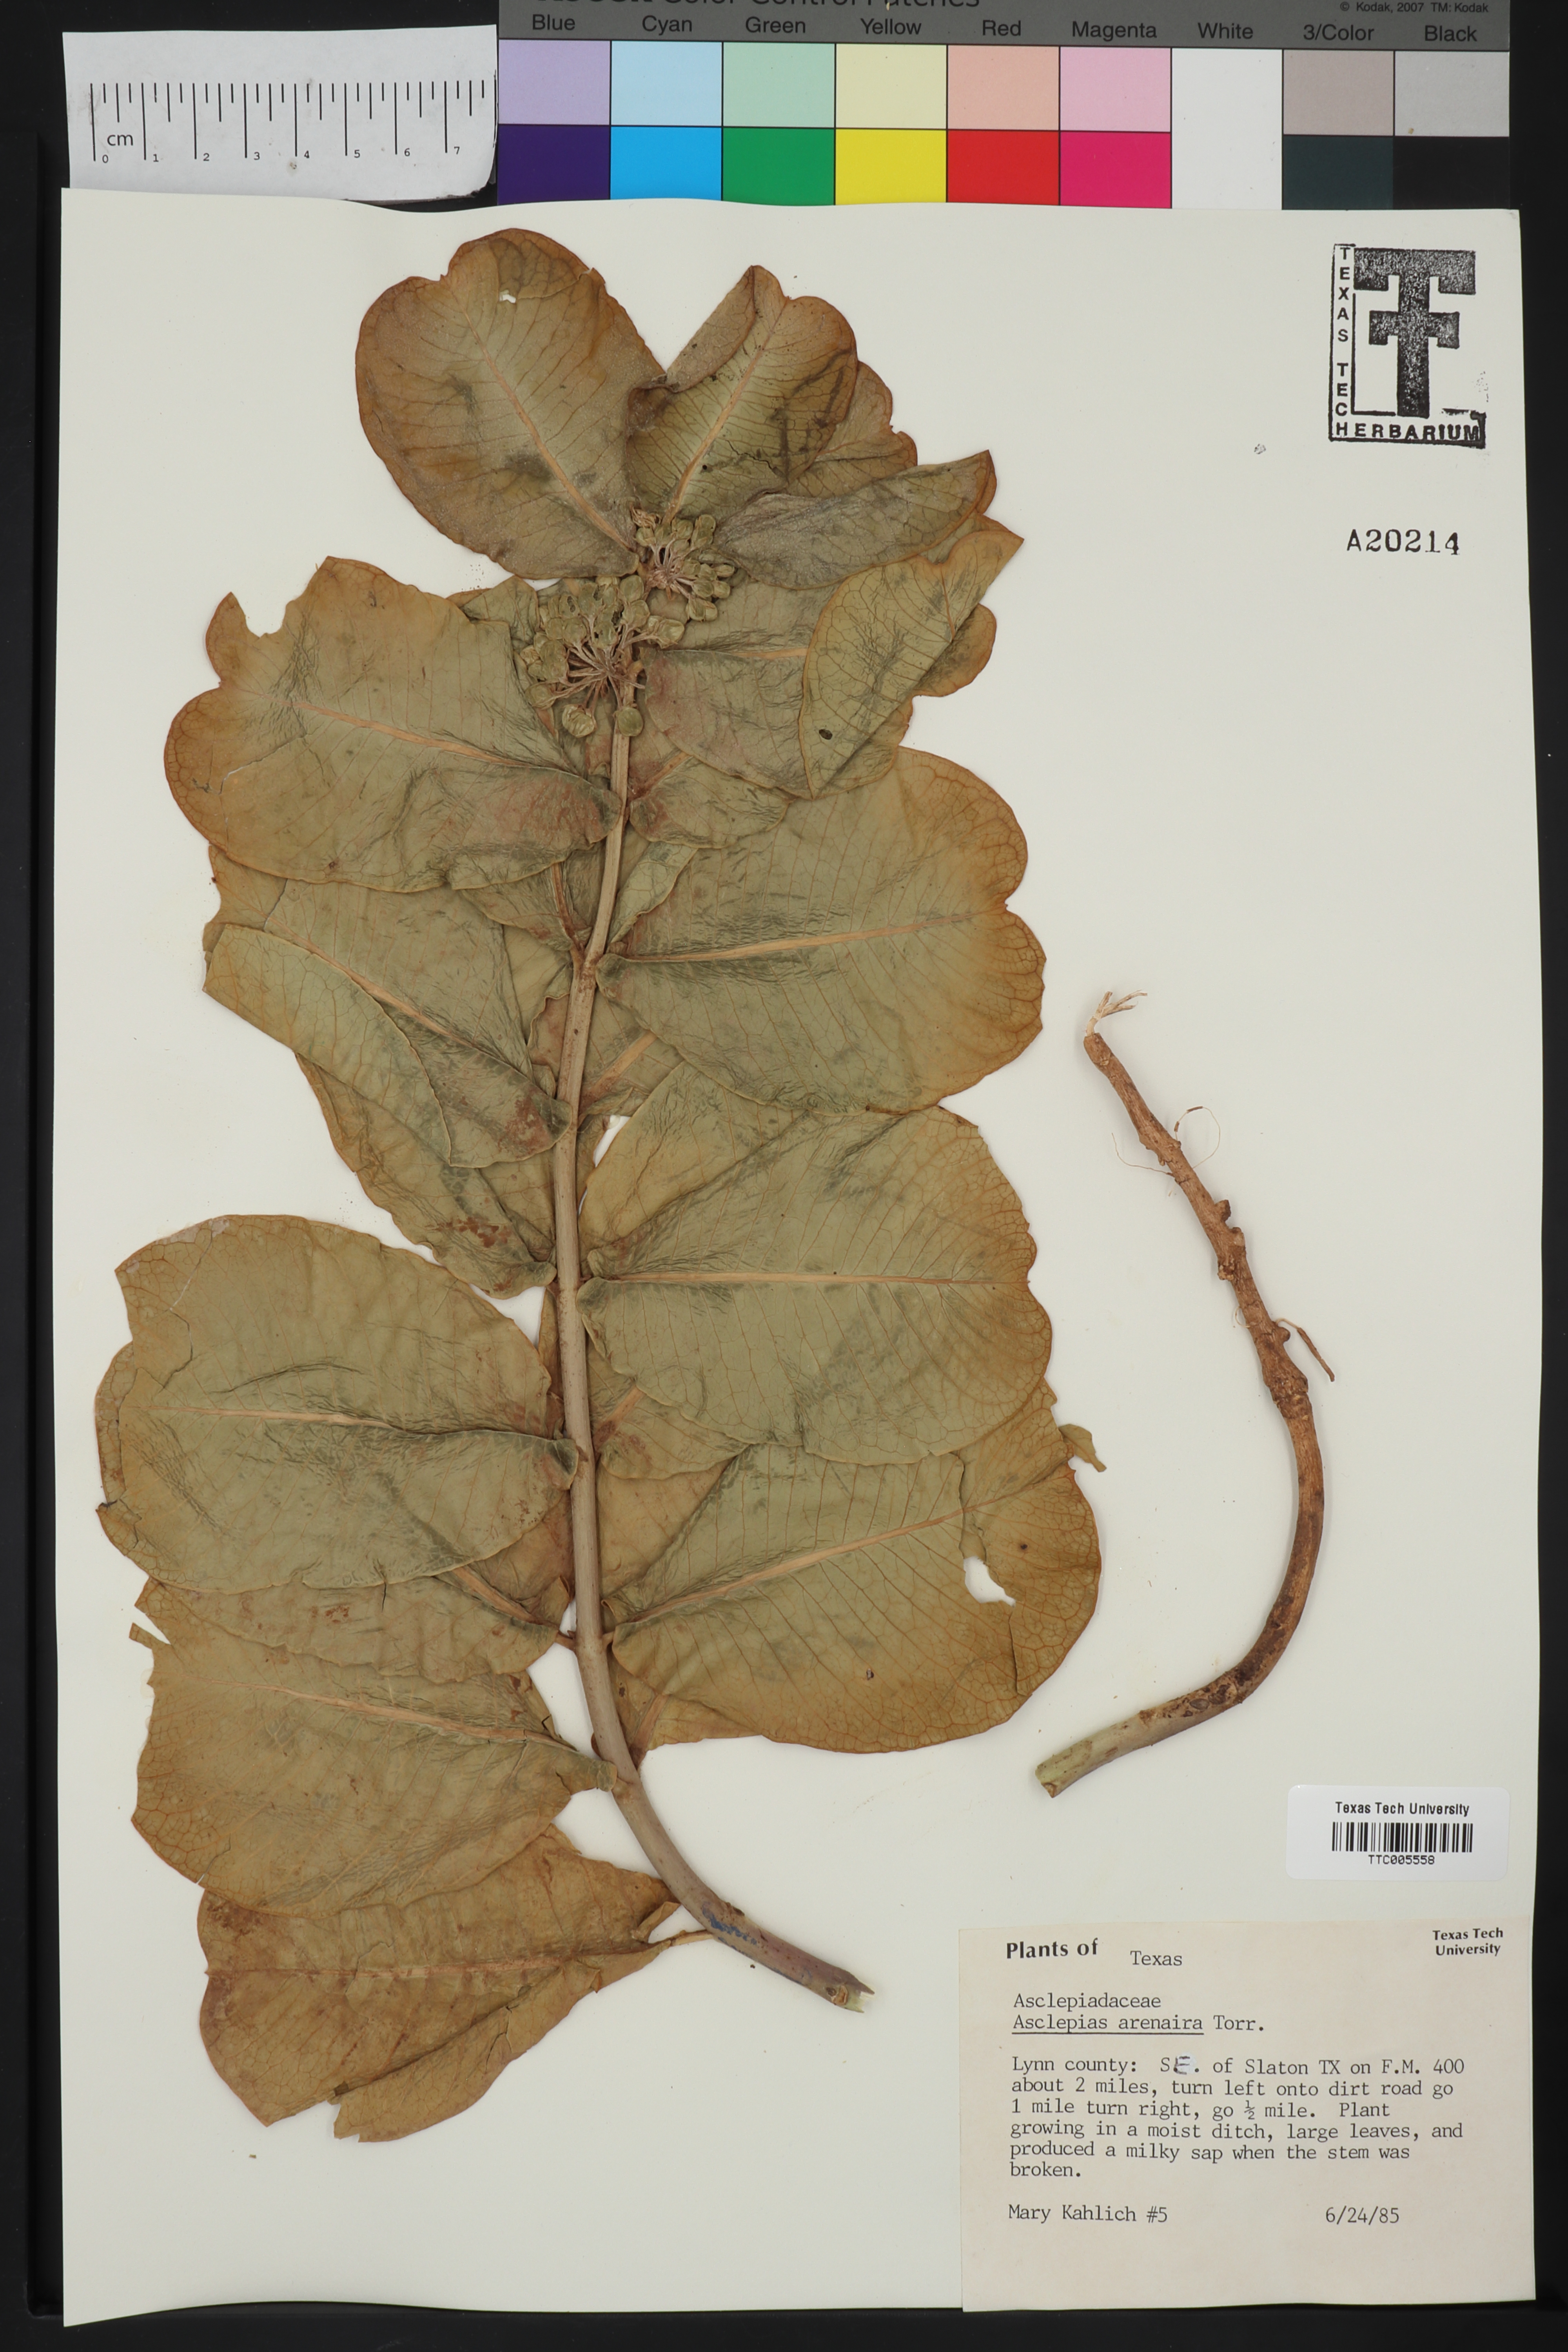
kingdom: Plantae
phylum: Tracheophyta
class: Magnoliopsida
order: Gentianales
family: Apocynaceae
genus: Asclepias
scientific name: Asclepias arenaria
